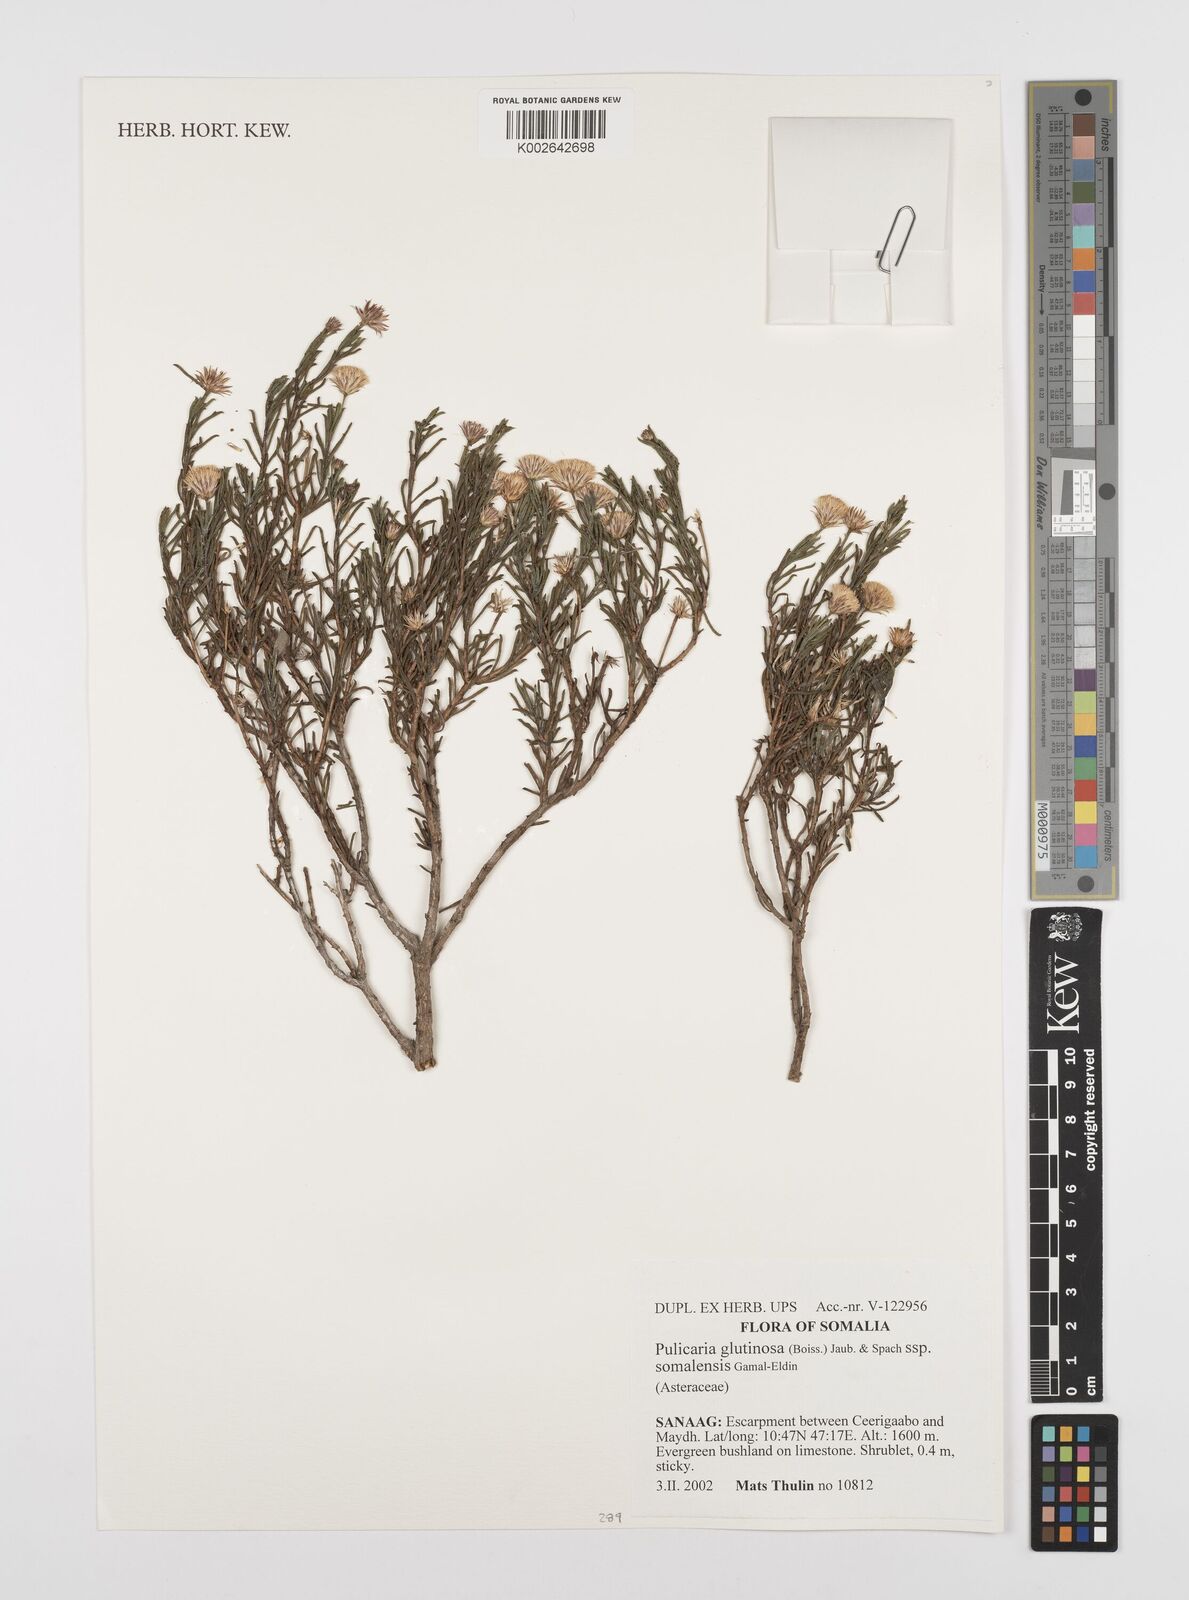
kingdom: Plantae
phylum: Tracheophyta
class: Magnoliopsida
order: Asterales
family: Asteraceae
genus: Pulicaria
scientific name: Pulicaria glutinosa
